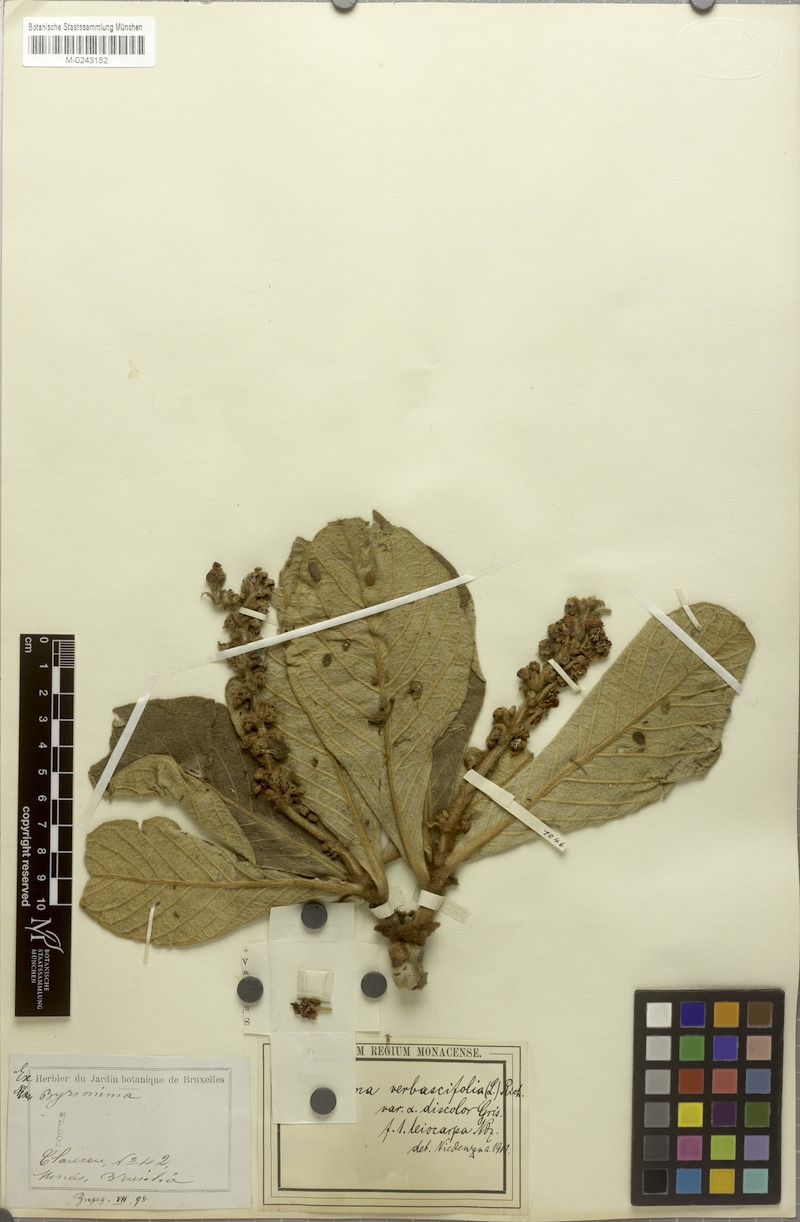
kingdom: Plantae
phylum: Tracheophyta
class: Magnoliopsida
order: Malpighiales
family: Malpighiaceae
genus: Byrsonima
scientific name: Byrsonima verbascifolia
